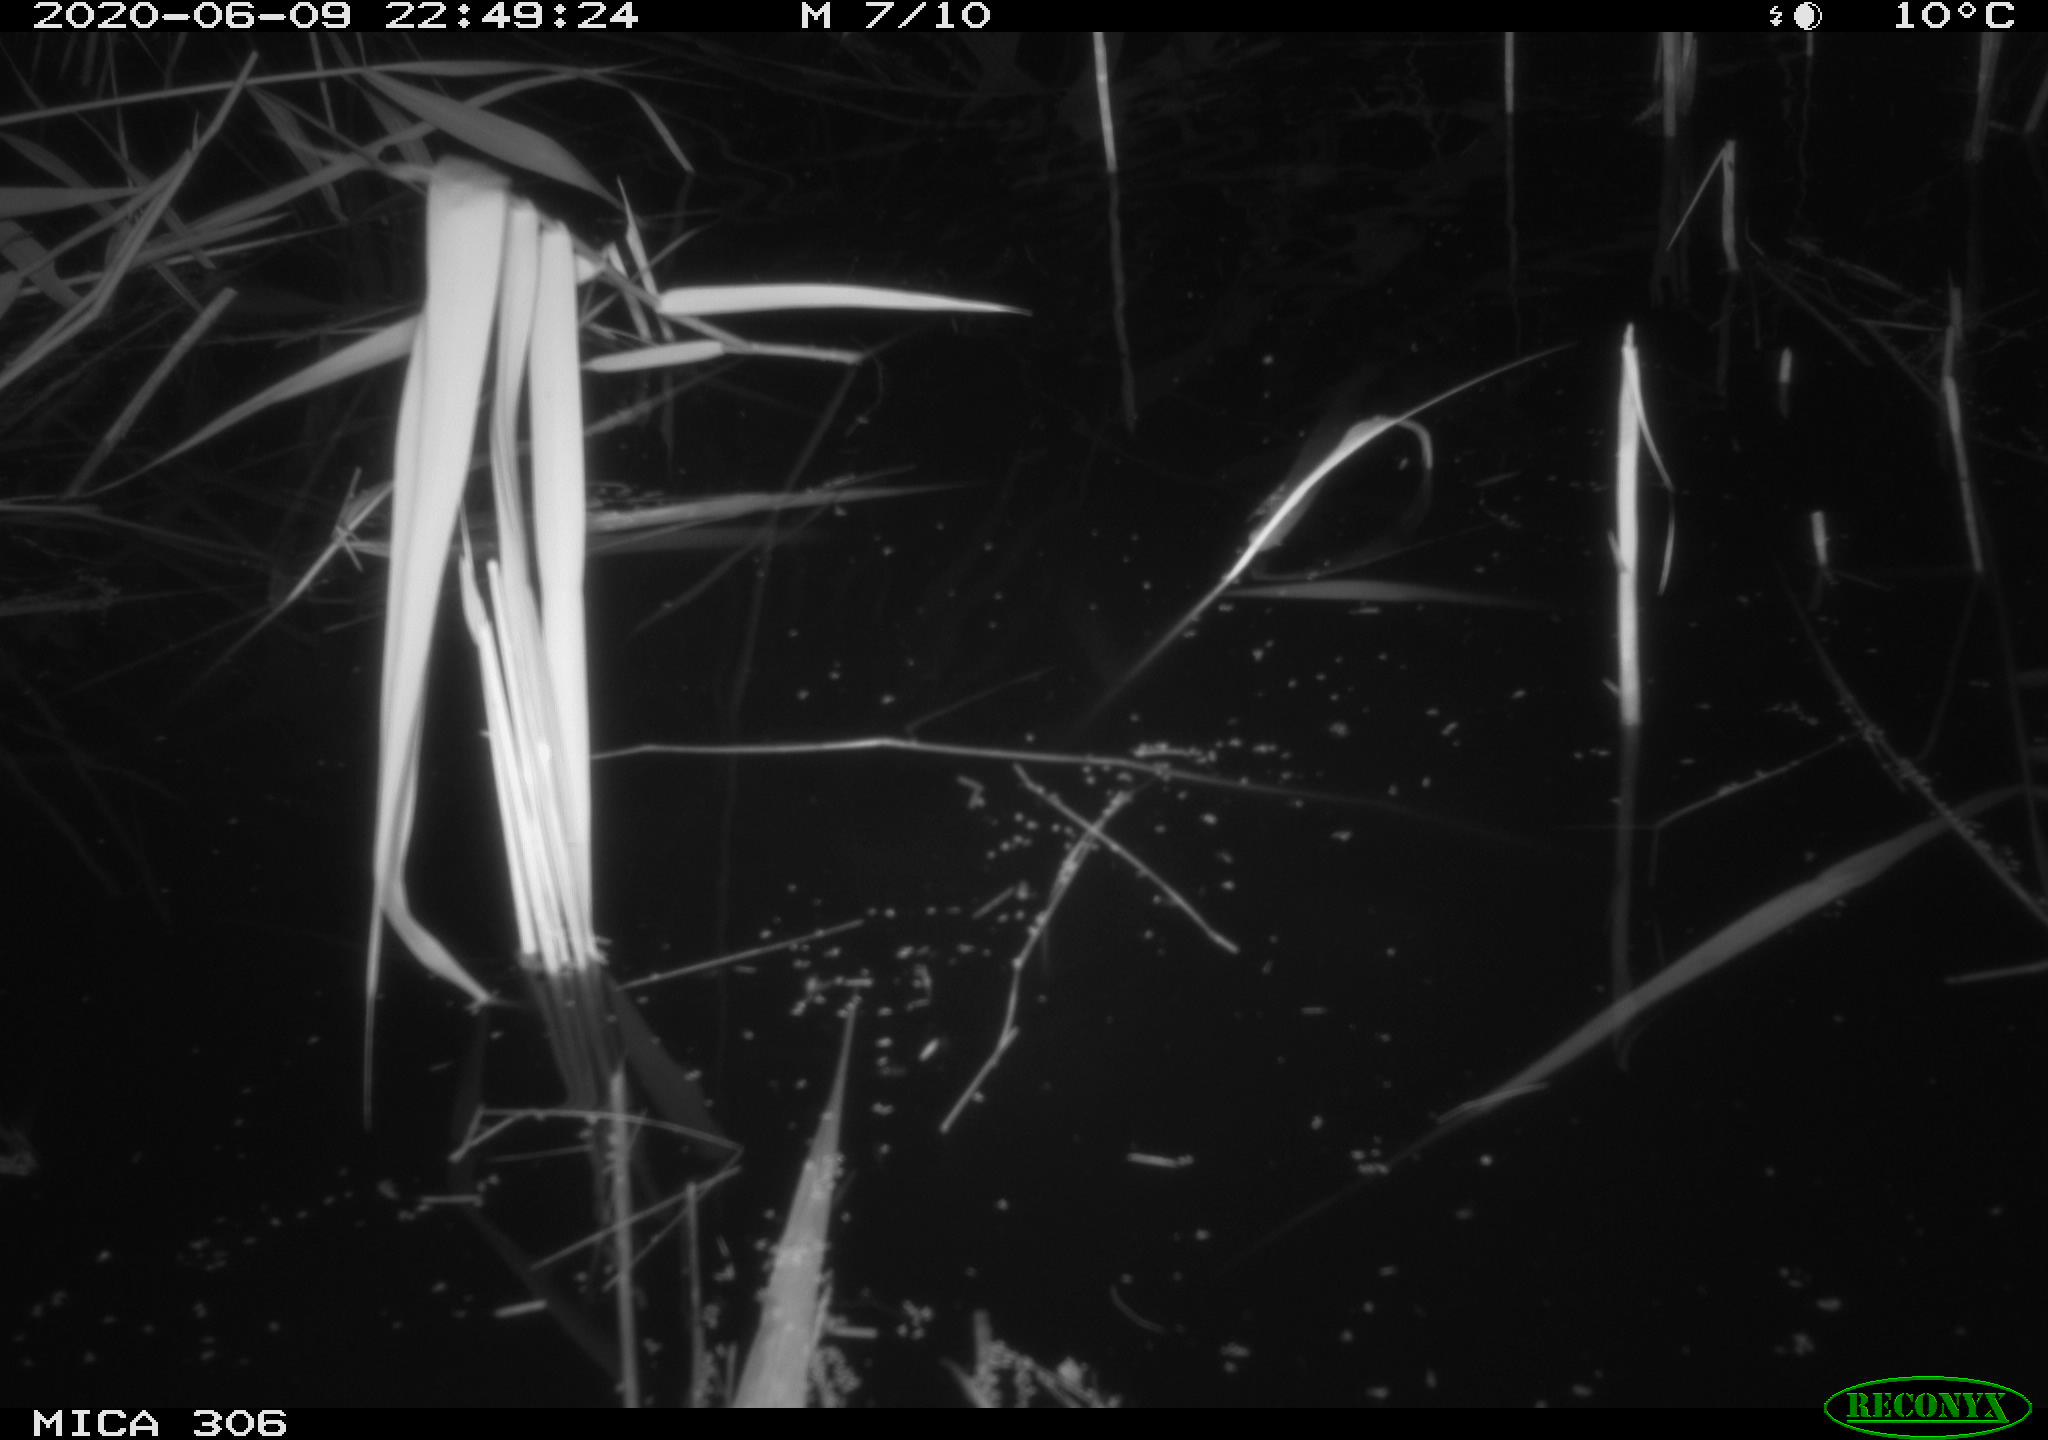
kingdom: Animalia
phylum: Chordata
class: Aves
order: Gruiformes
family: Rallidae
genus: Gallinula
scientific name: Gallinula chloropus
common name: Common moorhen
